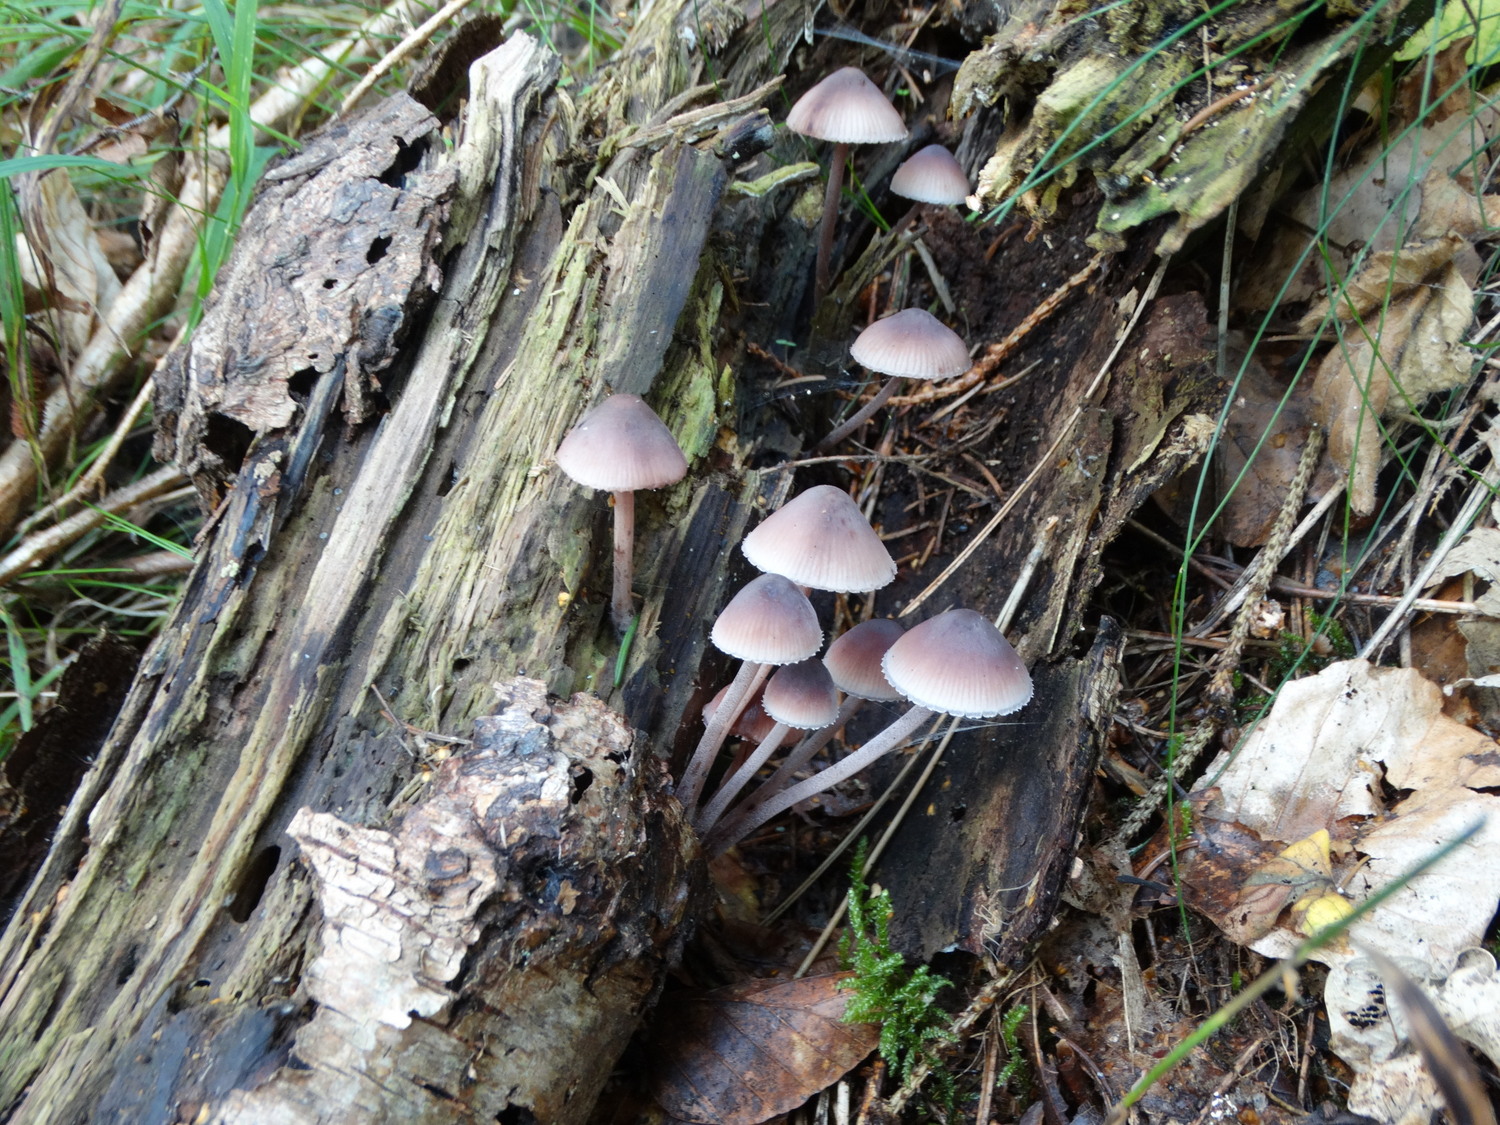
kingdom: Fungi
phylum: Basidiomycota
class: Agaricomycetes
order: Agaricales
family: Mycenaceae
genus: Mycena
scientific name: Mycena haematopus
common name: blødende huesvamp
